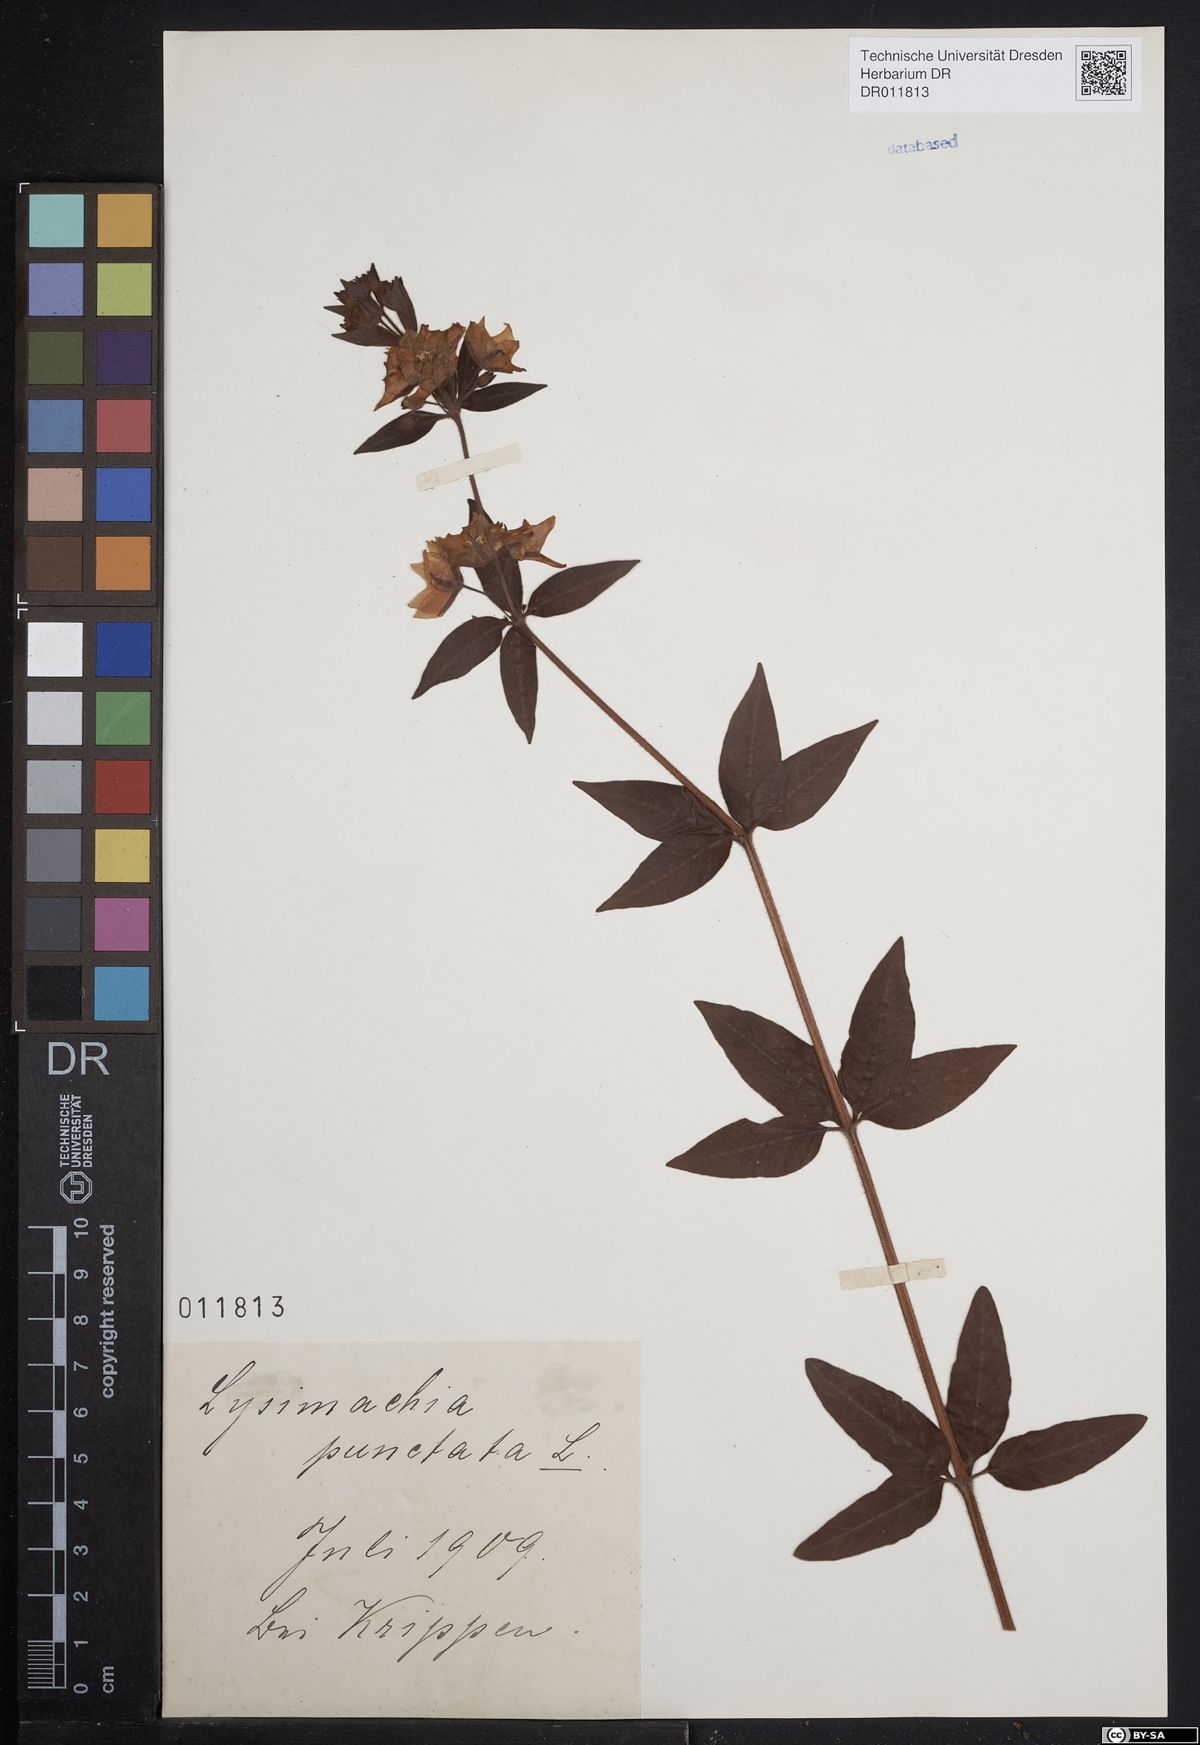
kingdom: Plantae
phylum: Tracheophyta
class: Magnoliopsida
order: Ericales
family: Primulaceae
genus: Lysimachia
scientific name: Lysimachia punctata
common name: Dotted loosestrife
